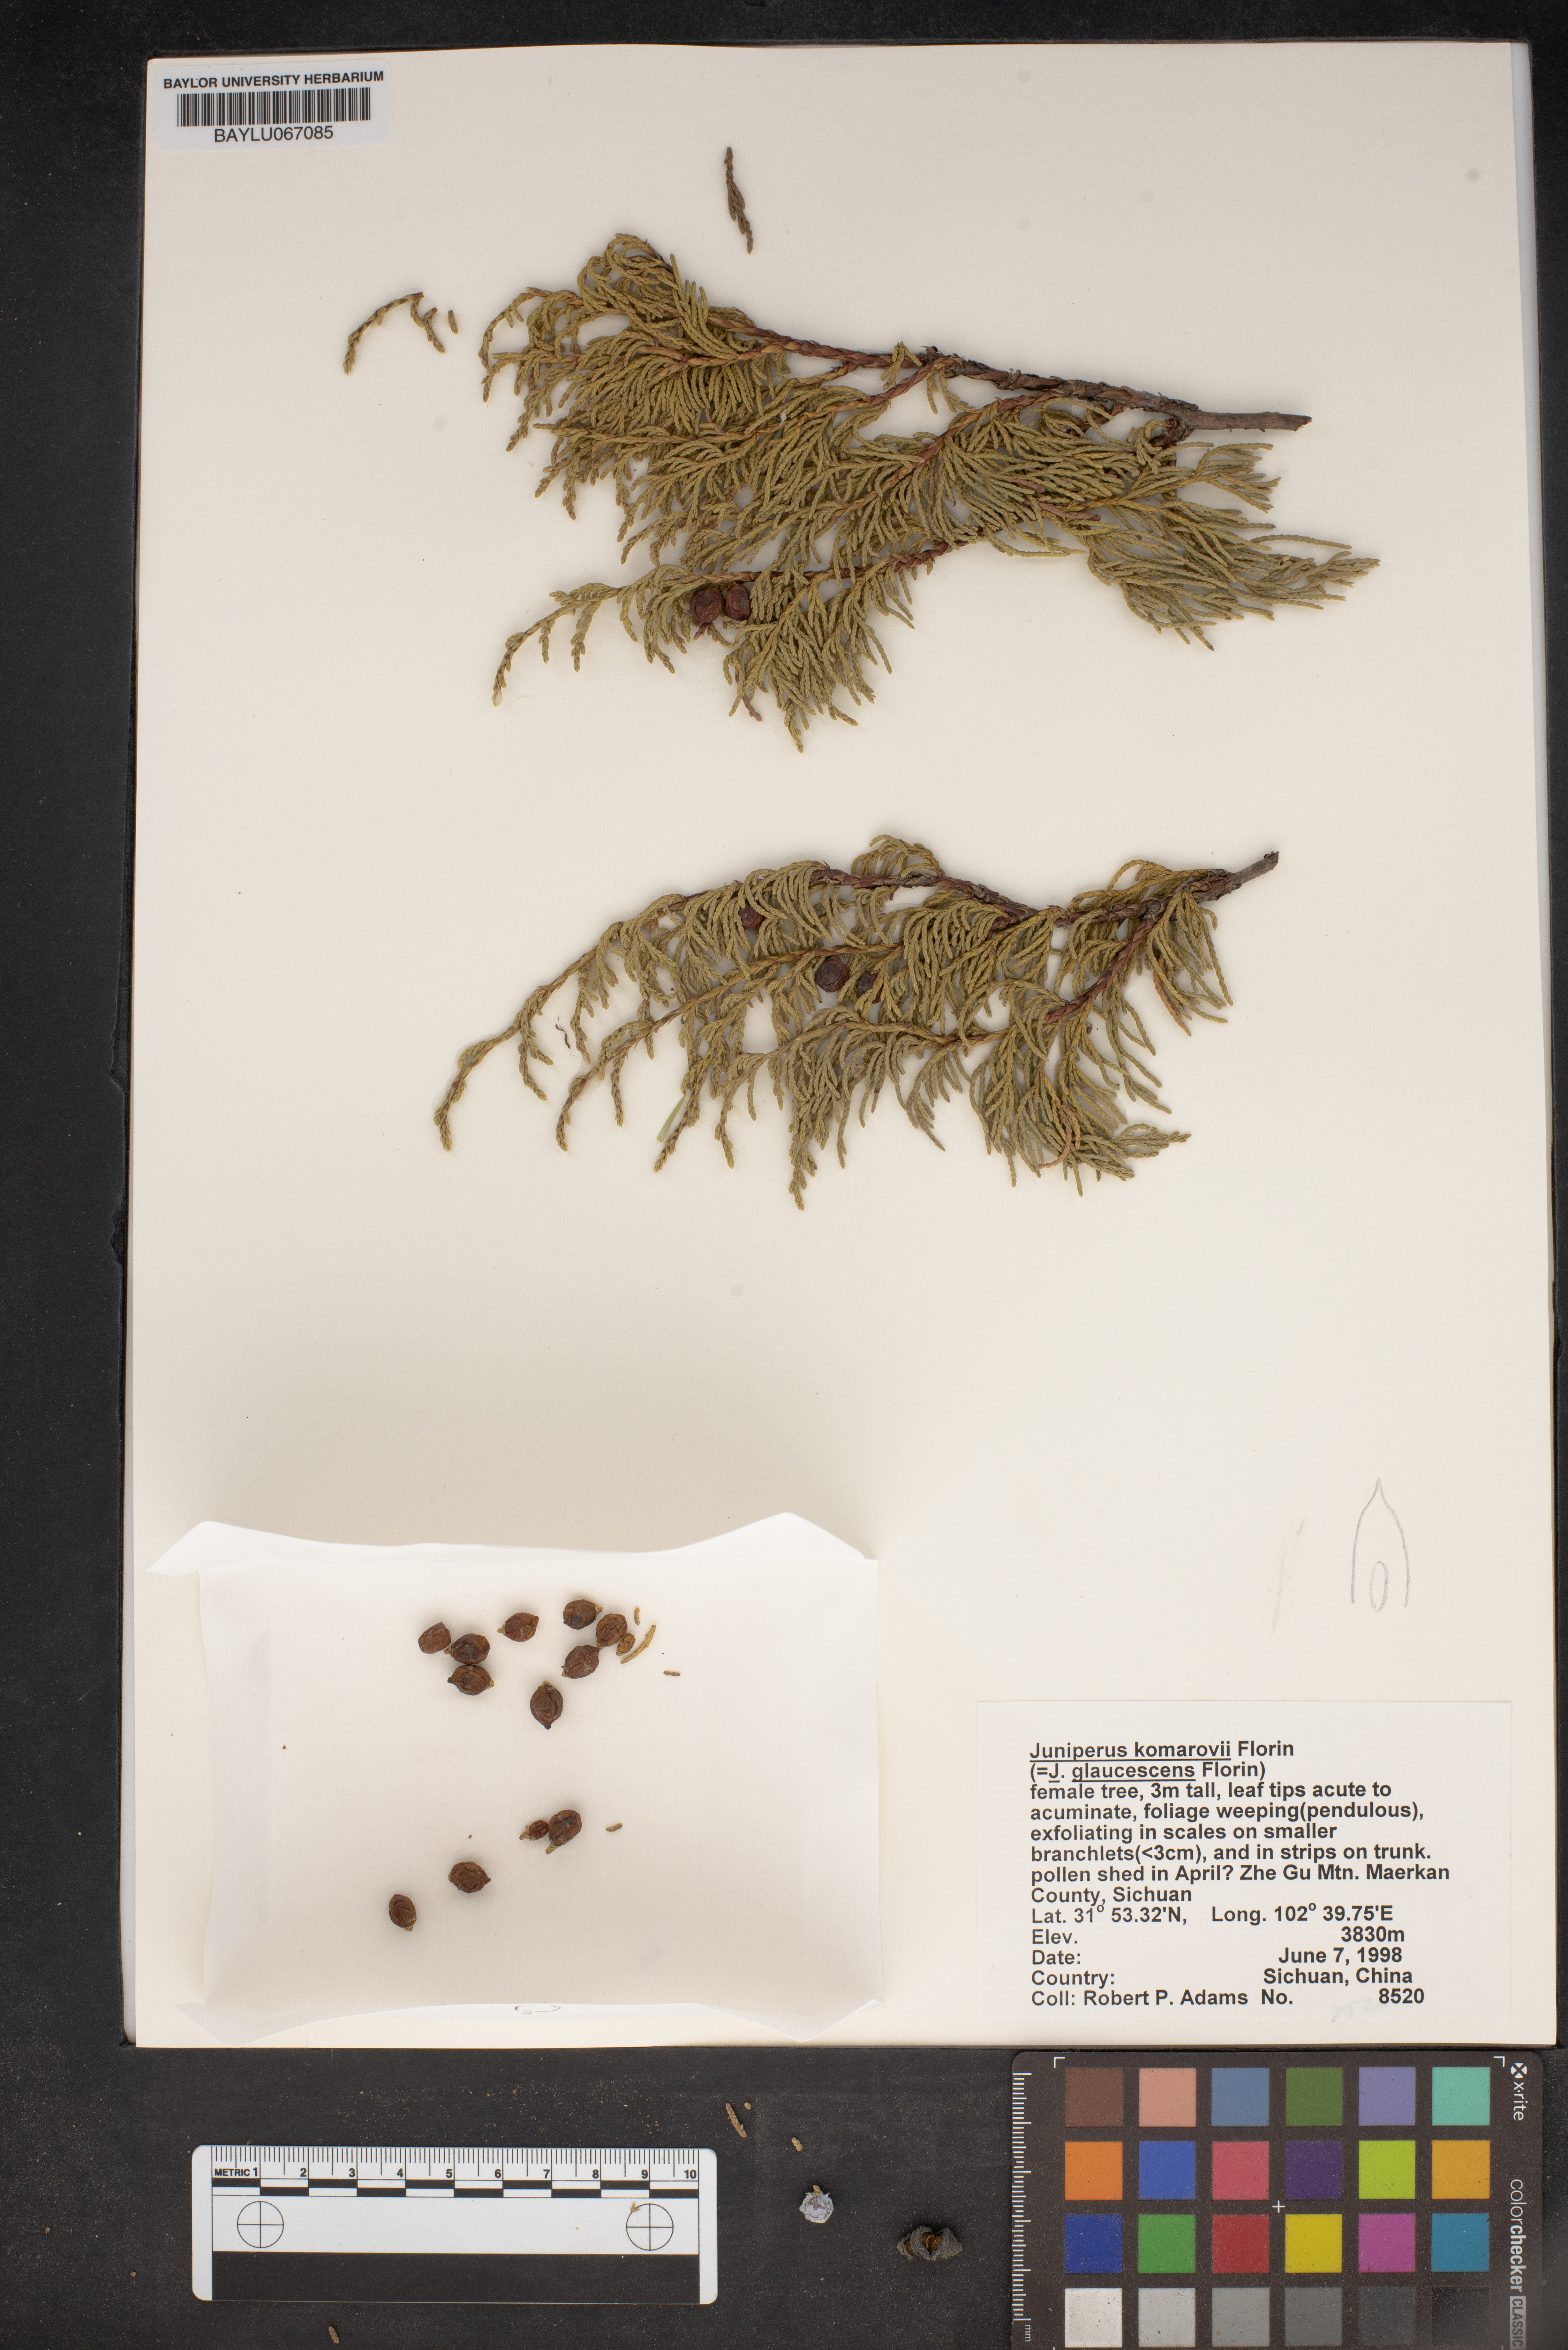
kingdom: Plantae
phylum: Tracheophyta
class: Pinopsida
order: Pinales
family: Cupressaceae
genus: Juniperus
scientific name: Juniperus komarovii
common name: Komarov's juniper
